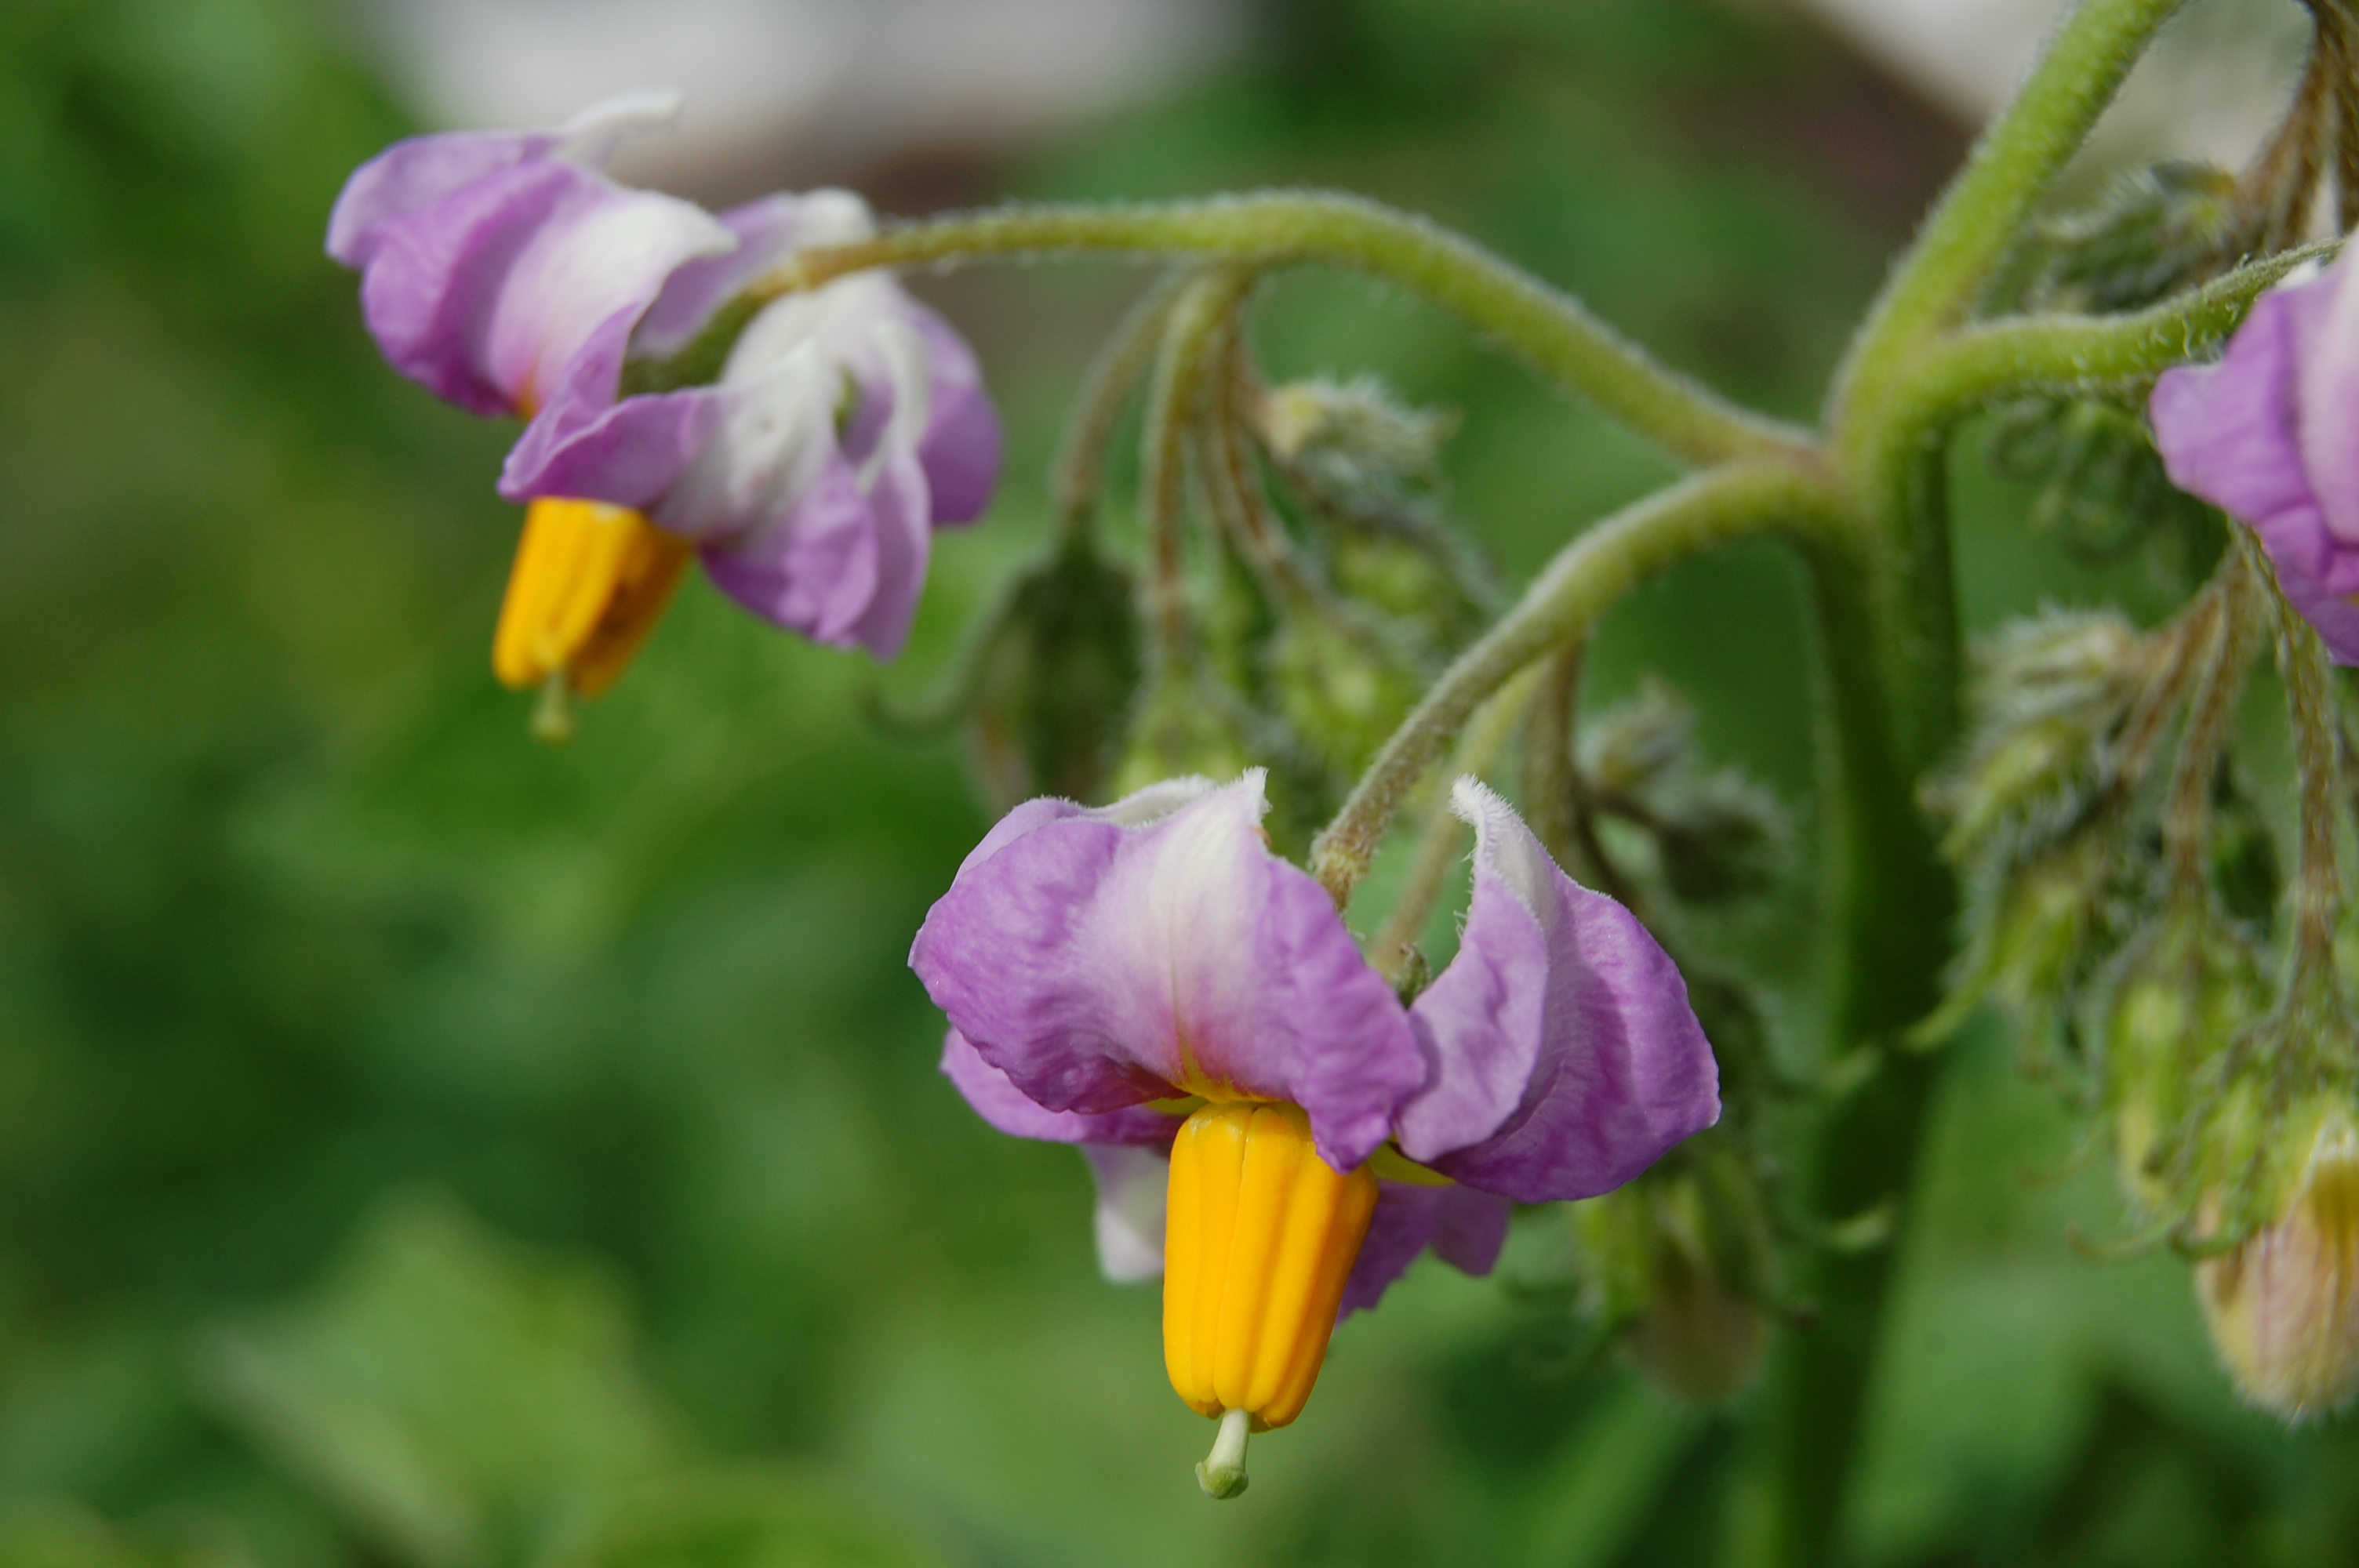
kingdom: Plantae
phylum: Tracheophyta
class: Magnoliopsida
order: Solanales
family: Solanaceae
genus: Solanum
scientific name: Solanum tuberosum
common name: Potato
